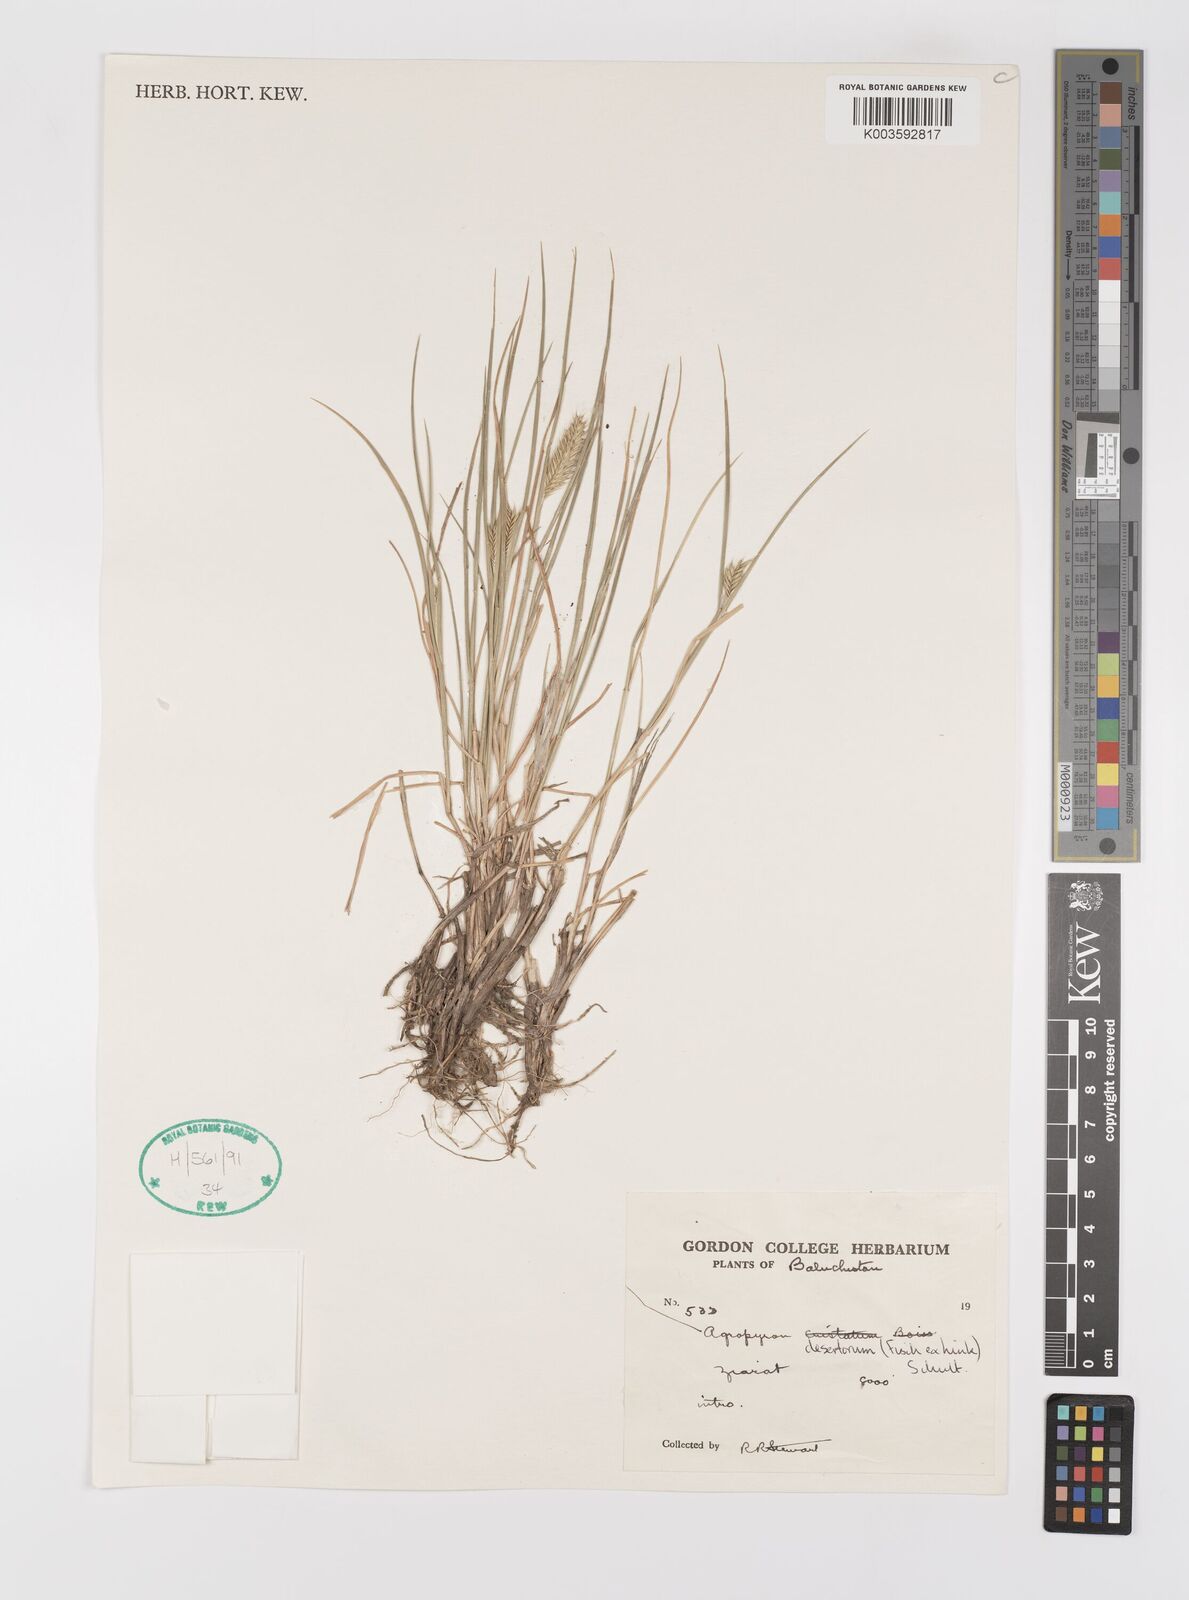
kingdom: Plantae
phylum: Tracheophyta
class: Liliopsida
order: Poales
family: Poaceae
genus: Agropyron
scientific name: Agropyron desertorum
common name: Desert wheatgrass
